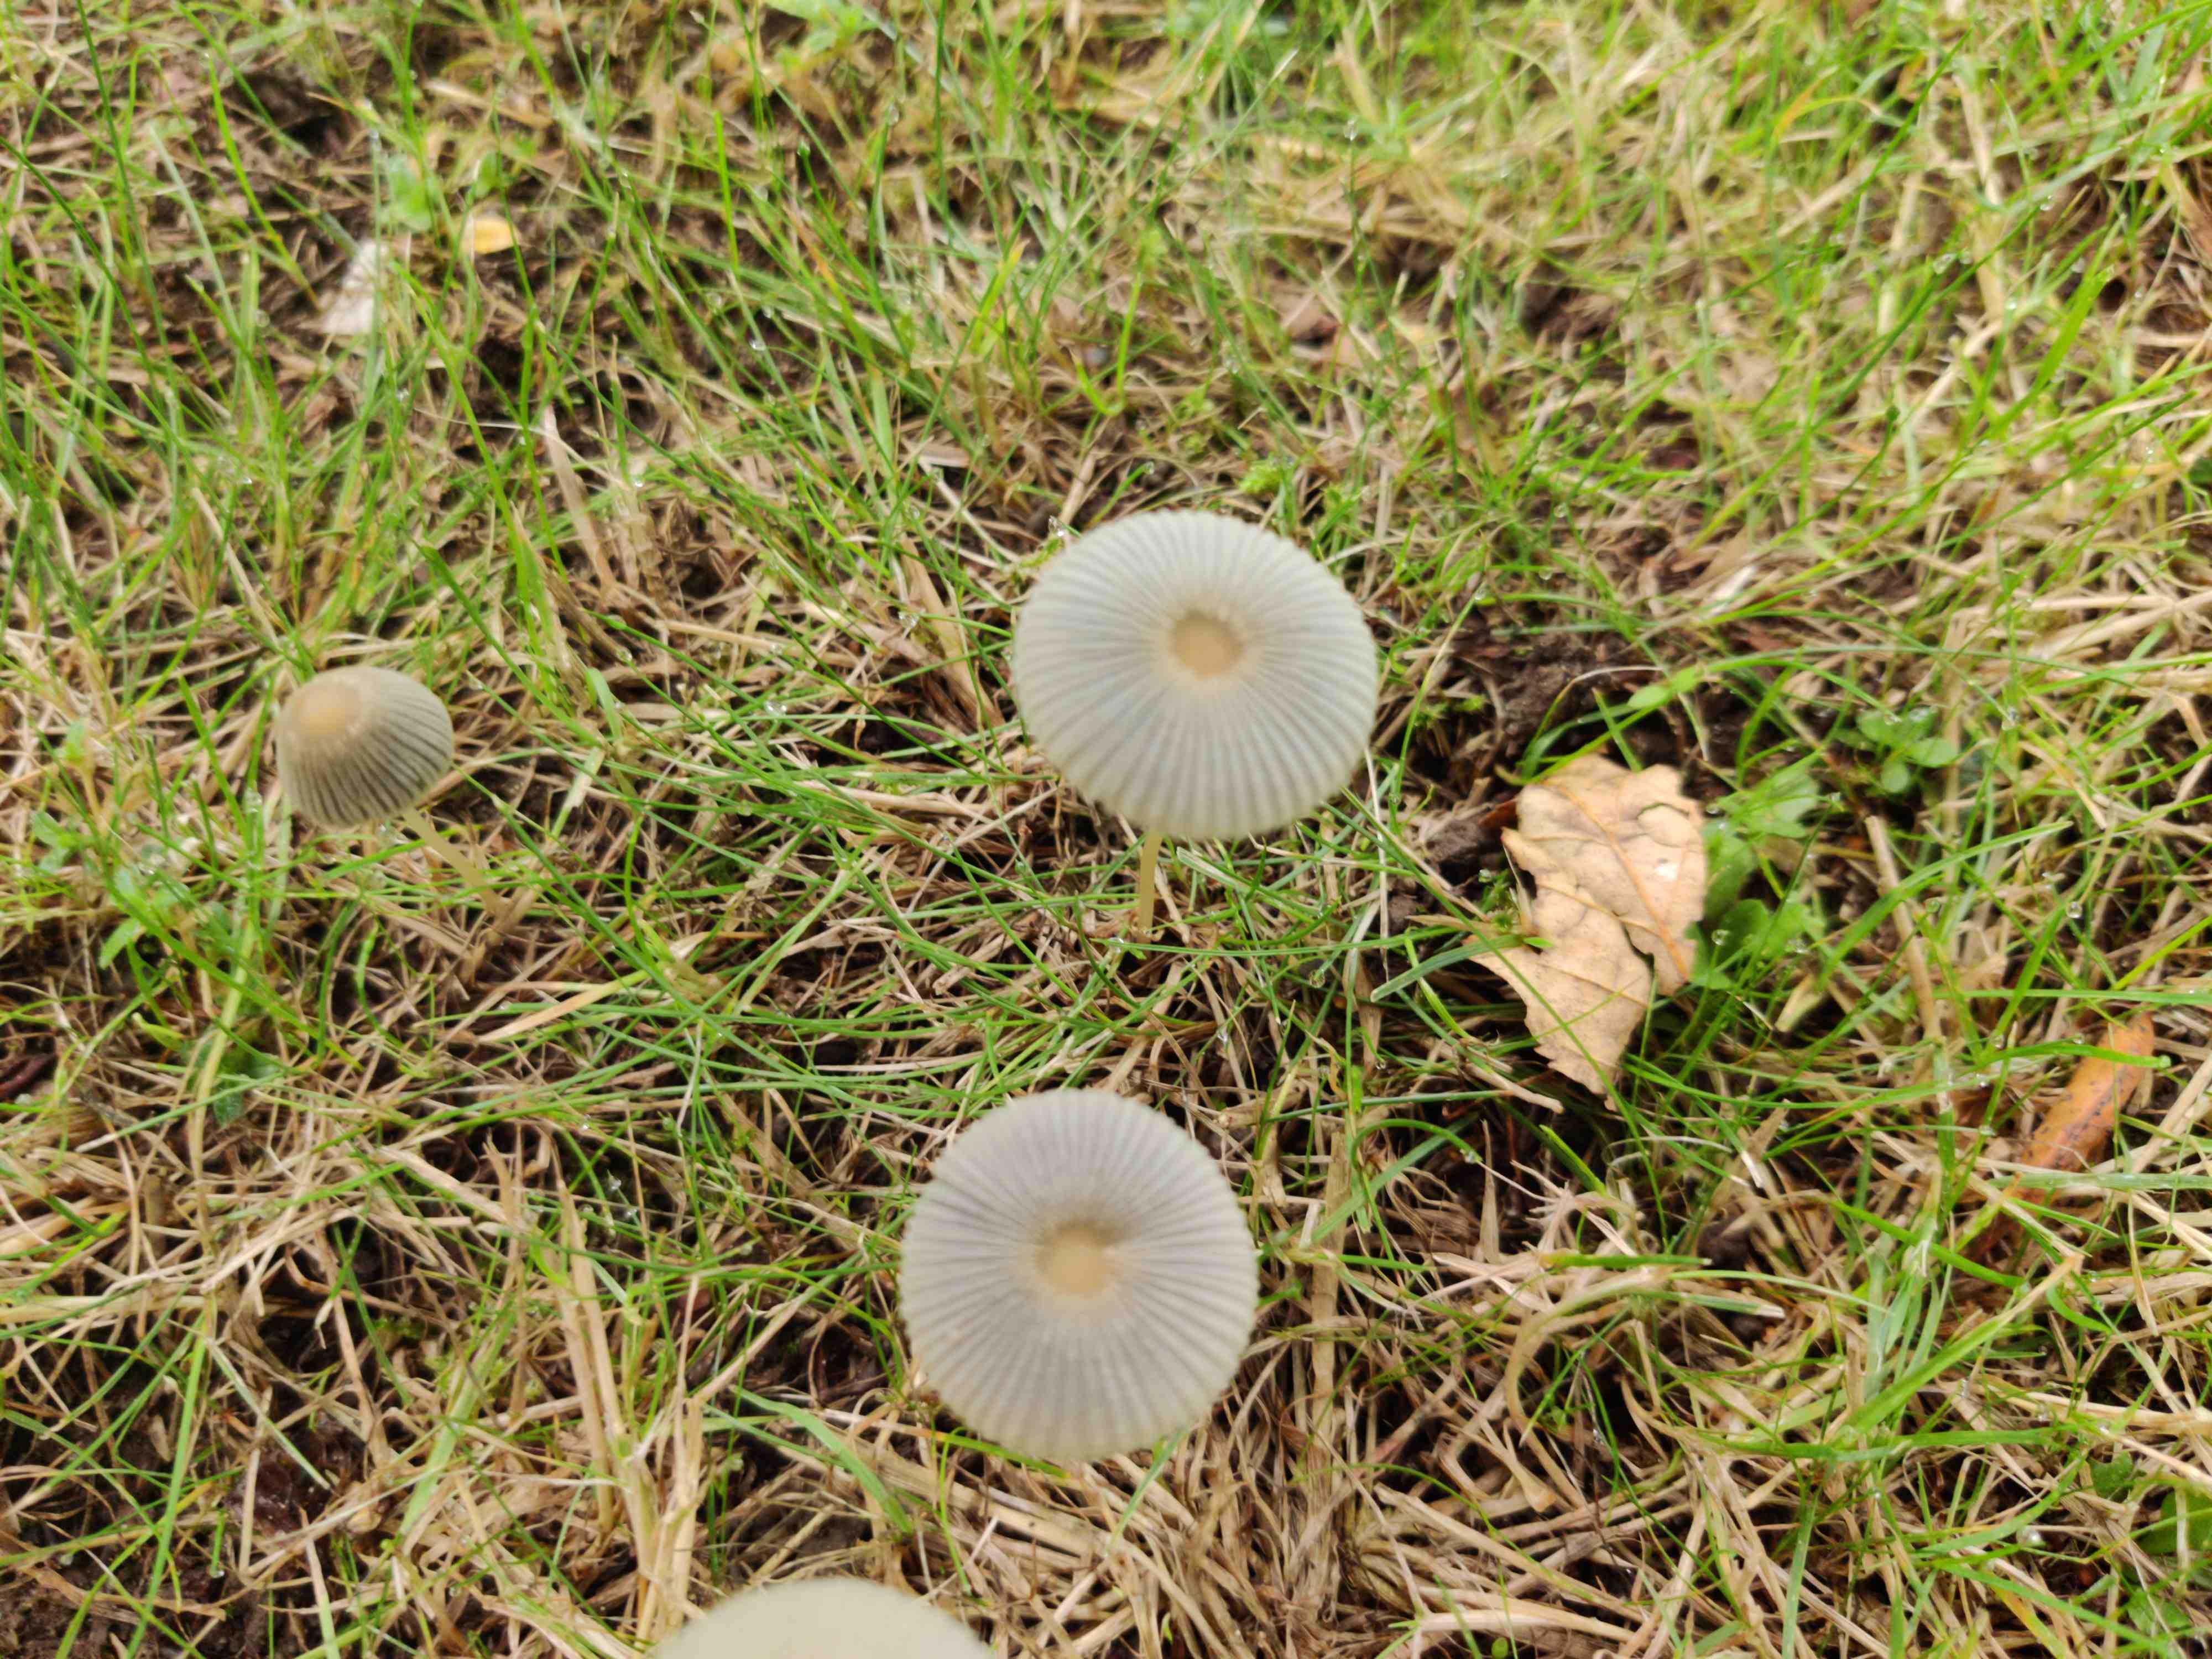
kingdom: Fungi
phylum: Basidiomycota
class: Agaricomycetes
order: Agaricales
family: Psathyrellaceae
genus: Parasola
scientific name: Parasola
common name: hjulhat
